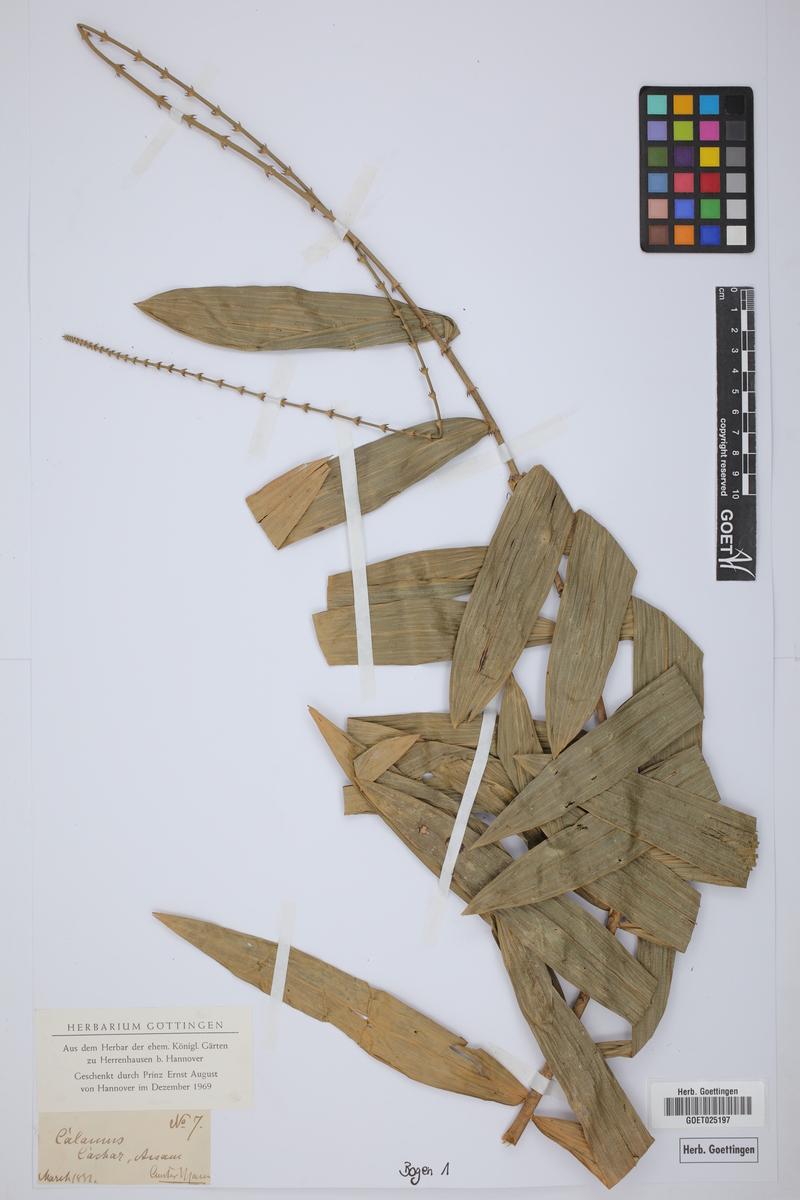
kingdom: Plantae
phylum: Tracheophyta
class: Liliopsida
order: Arecales
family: Arecaceae
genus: Calamus
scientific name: Calamus
